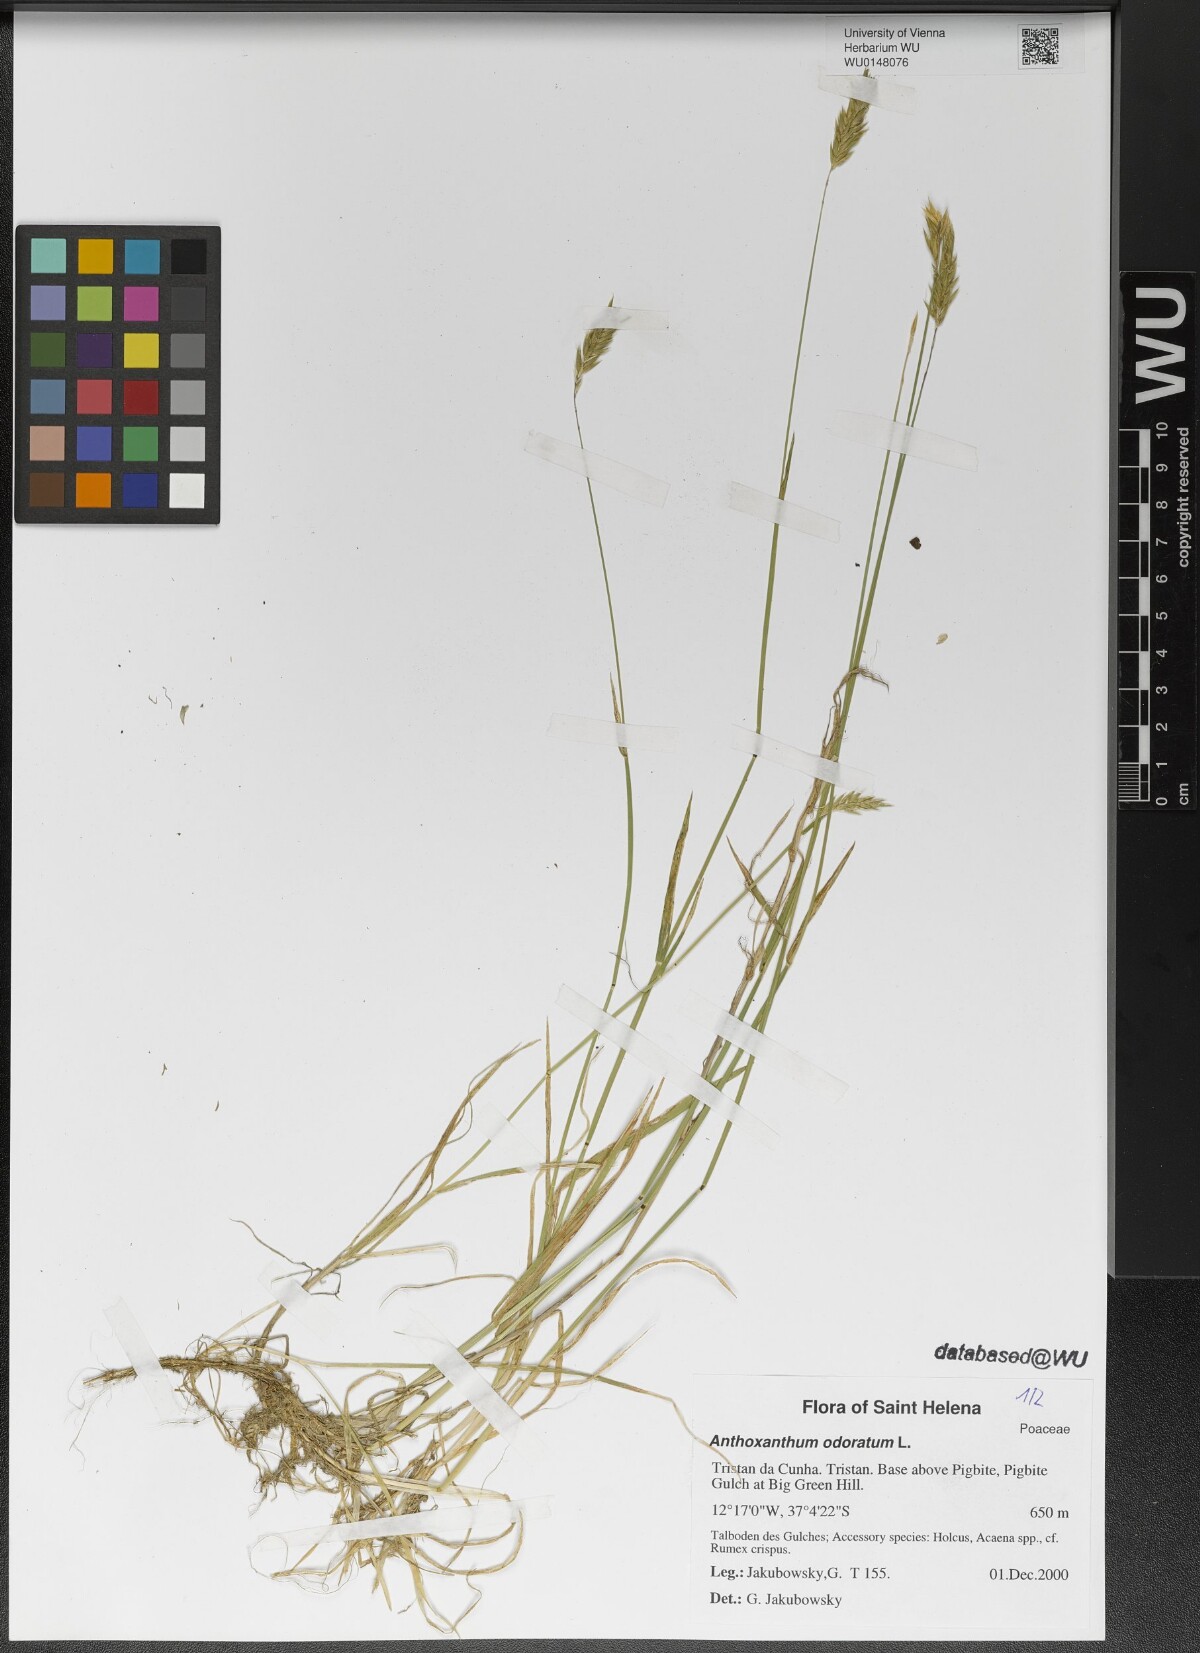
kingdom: Plantae
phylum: Tracheophyta
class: Liliopsida
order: Poales
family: Poaceae
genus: Anthoxanthum
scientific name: Anthoxanthum odoratum
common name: Sweet vernalgrass
